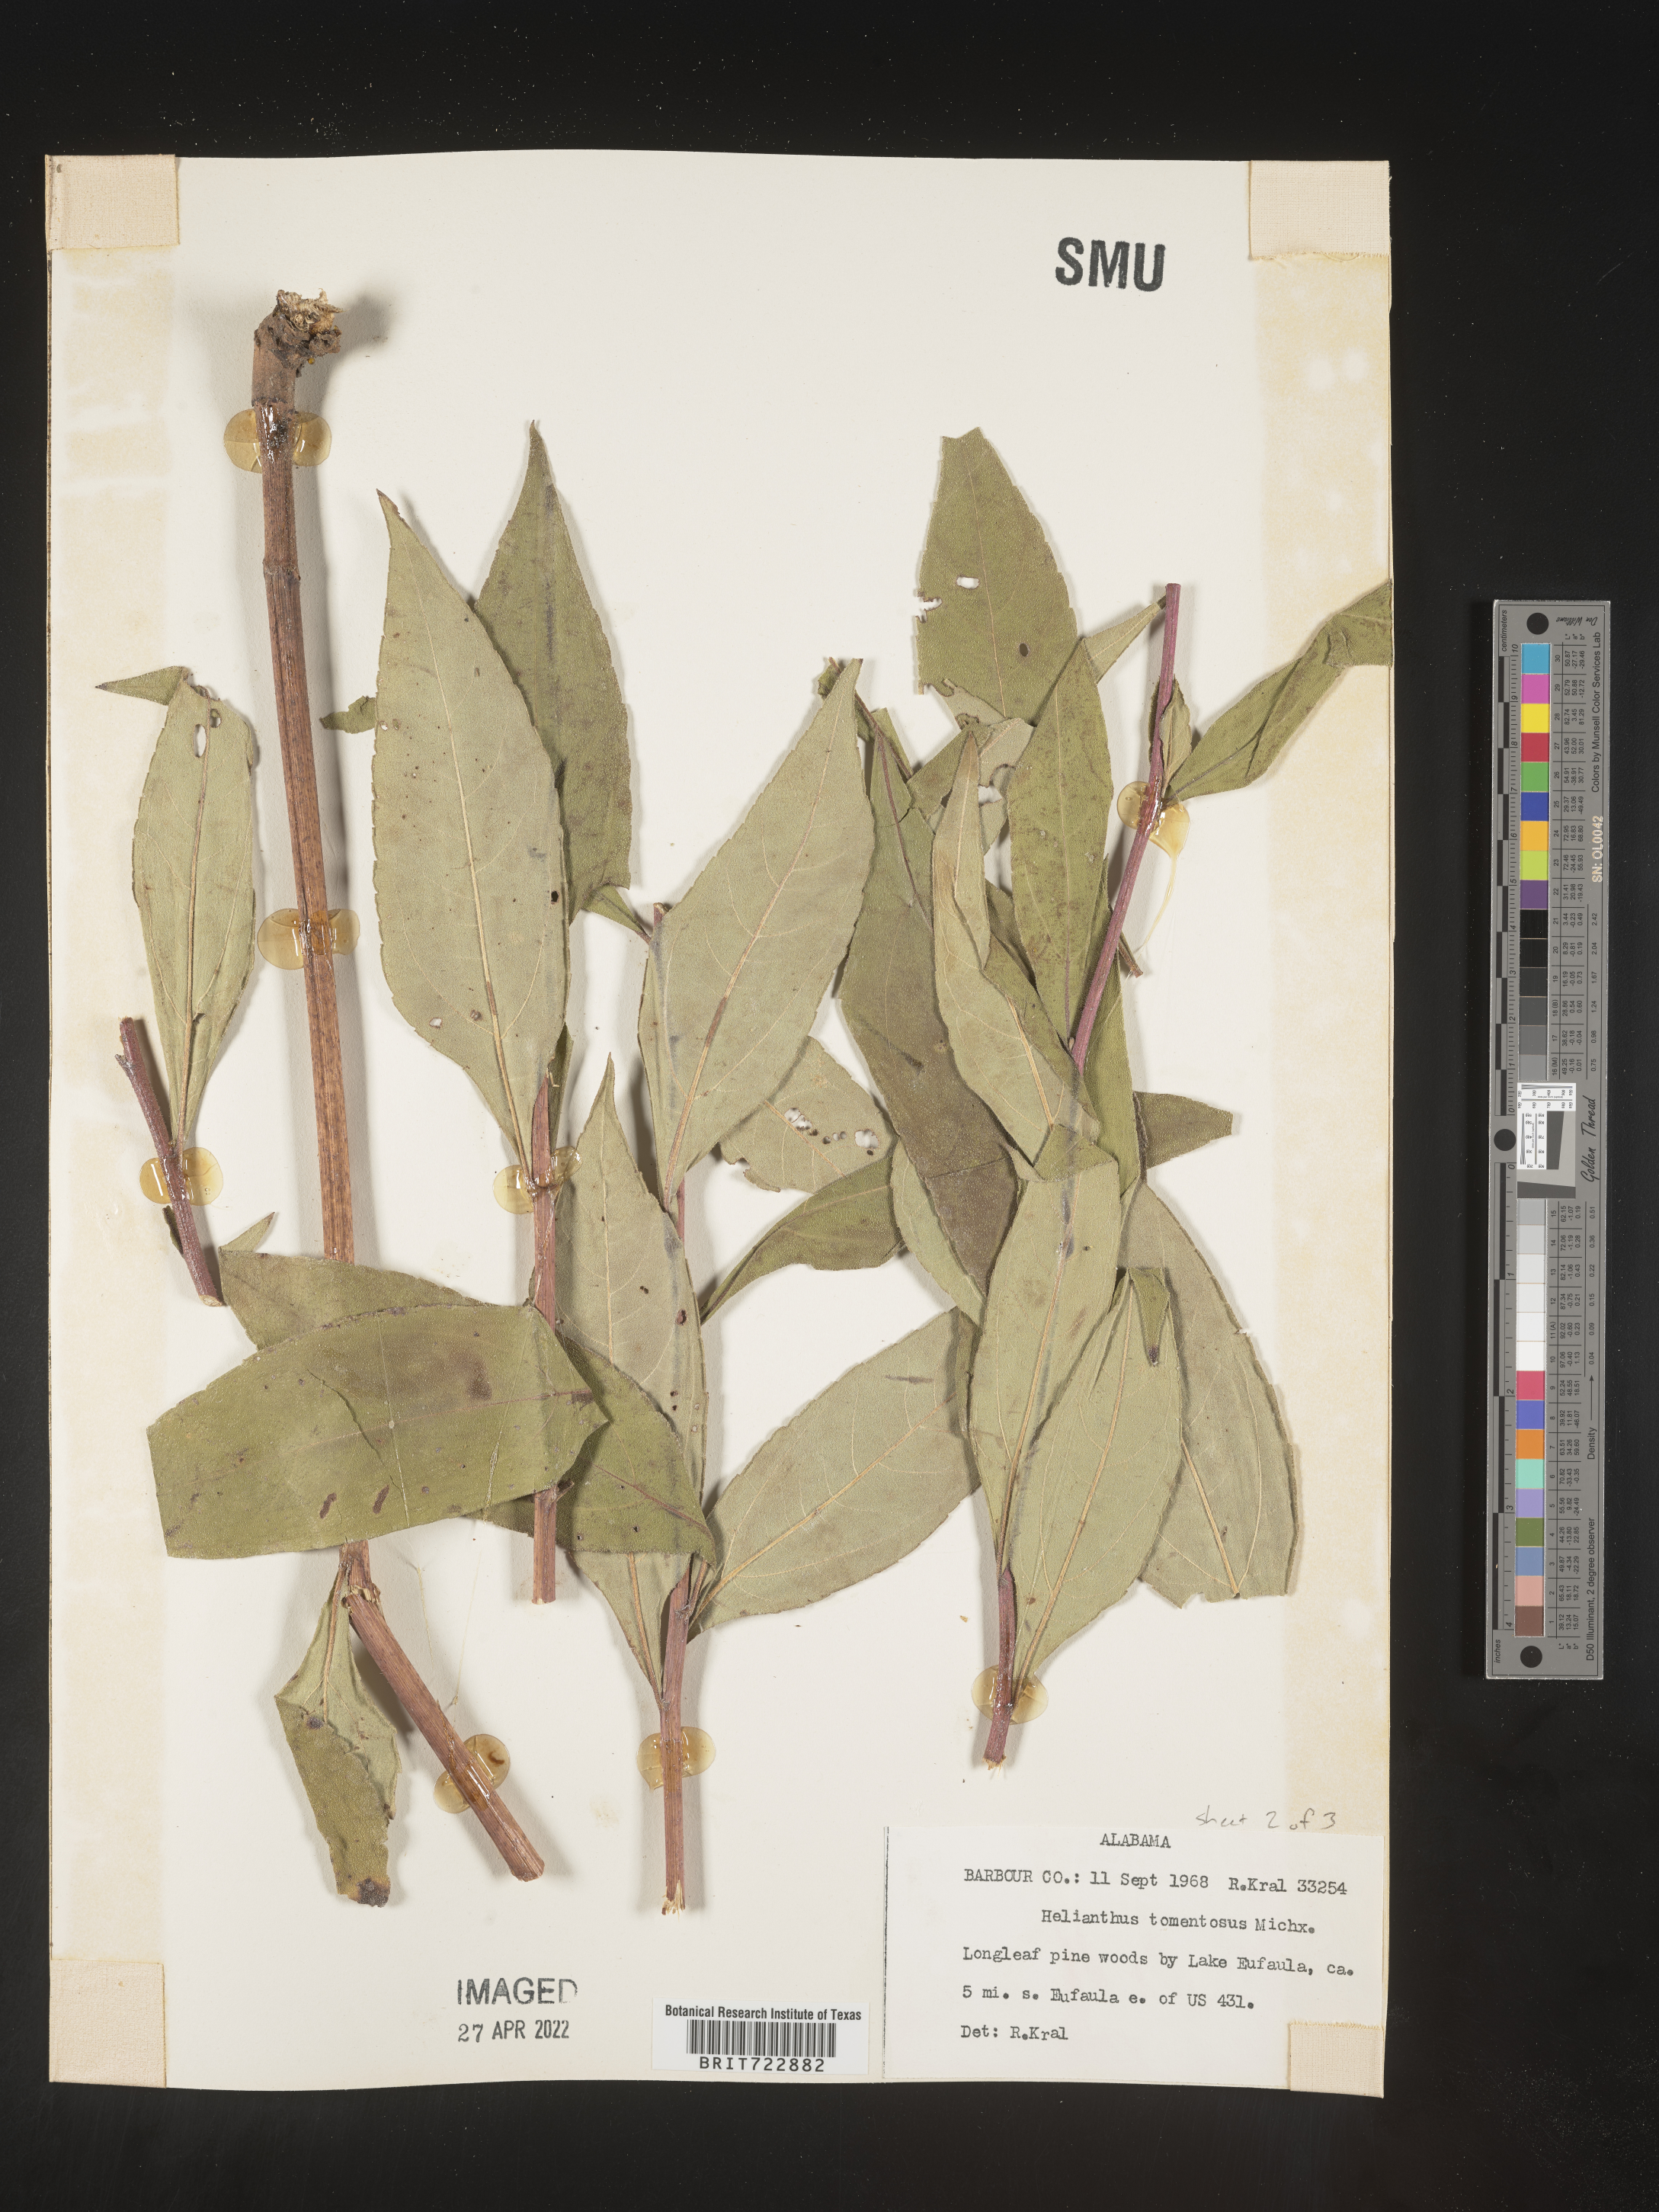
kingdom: Plantae
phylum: Tracheophyta
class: Magnoliopsida
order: Asterales
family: Asteraceae
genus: Helianthus
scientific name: Helianthus tuberosus
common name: Jerusalem artichoke
